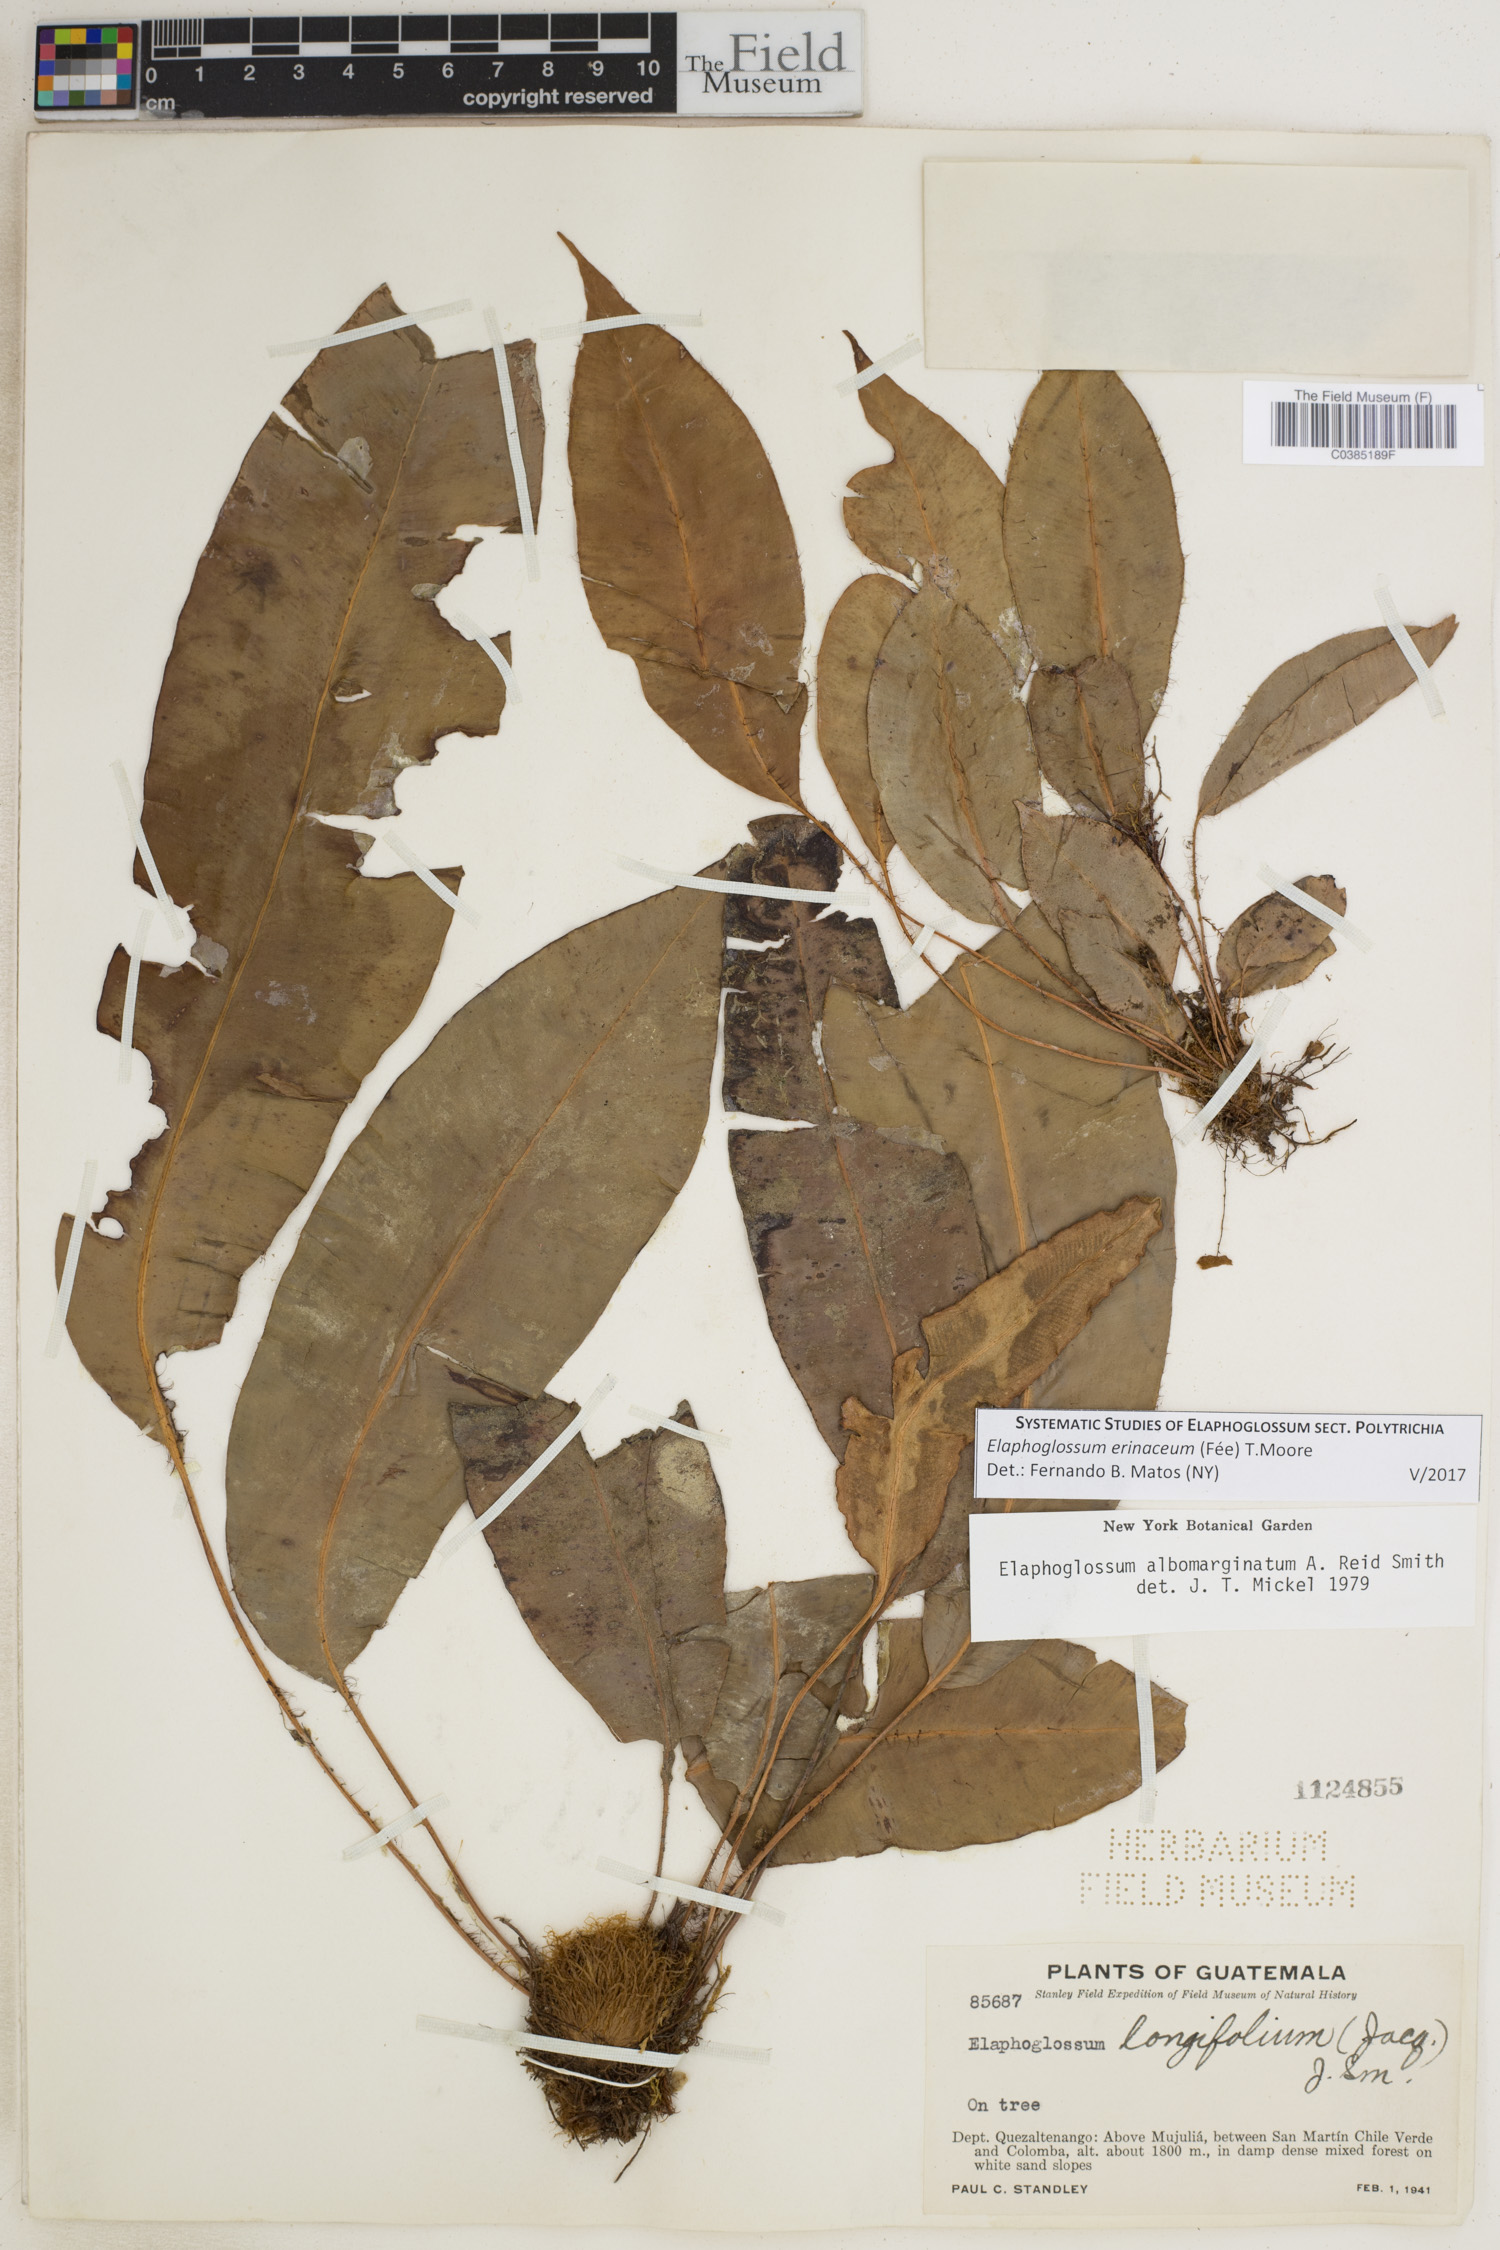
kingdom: Plantae
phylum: Tracheophyta
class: Polypodiopsida
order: Polypodiales
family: Dryopteridaceae
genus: Elaphoglossum
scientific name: Elaphoglossum erinaceum
